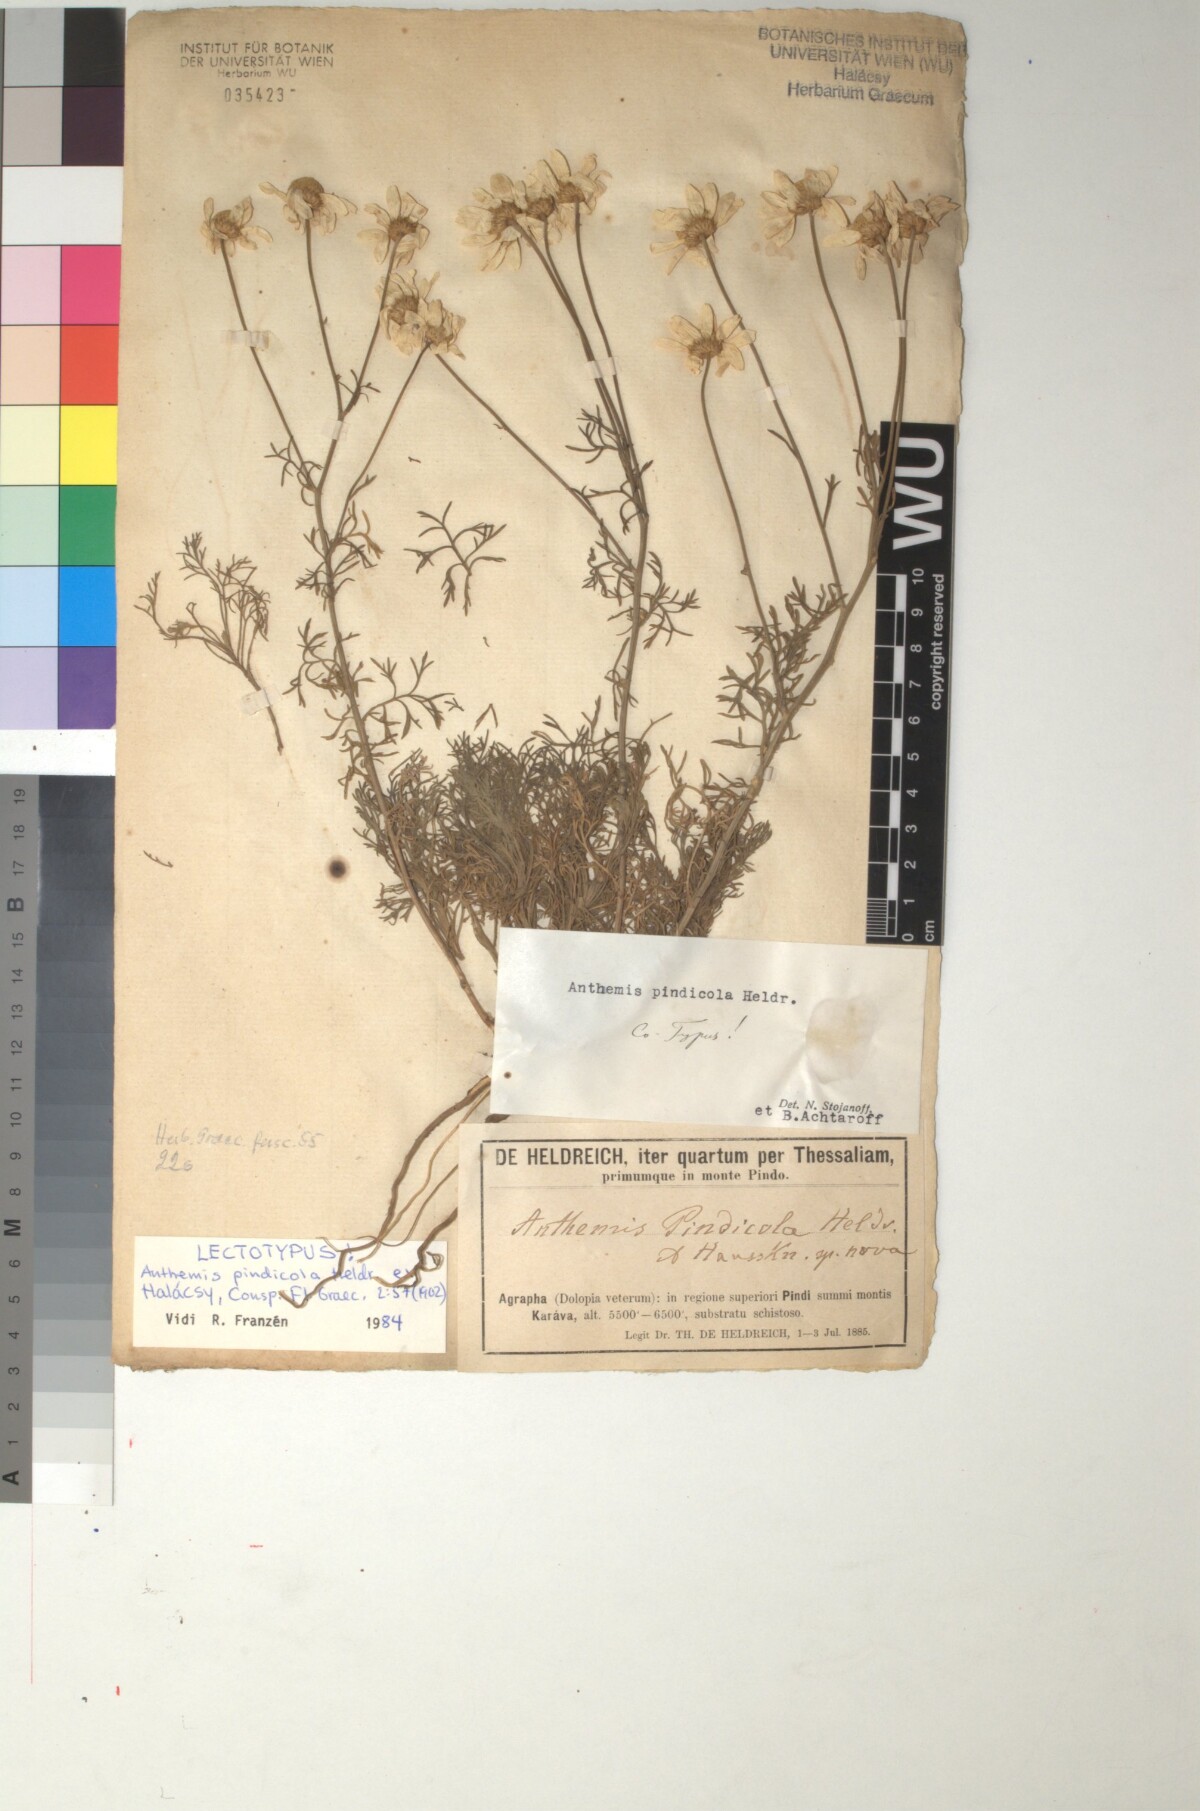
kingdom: Plantae
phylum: Tracheophyta
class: Magnoliopsida
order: Asterales
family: Asteraceae
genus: Anthemis
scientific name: Anthemis pindicola
